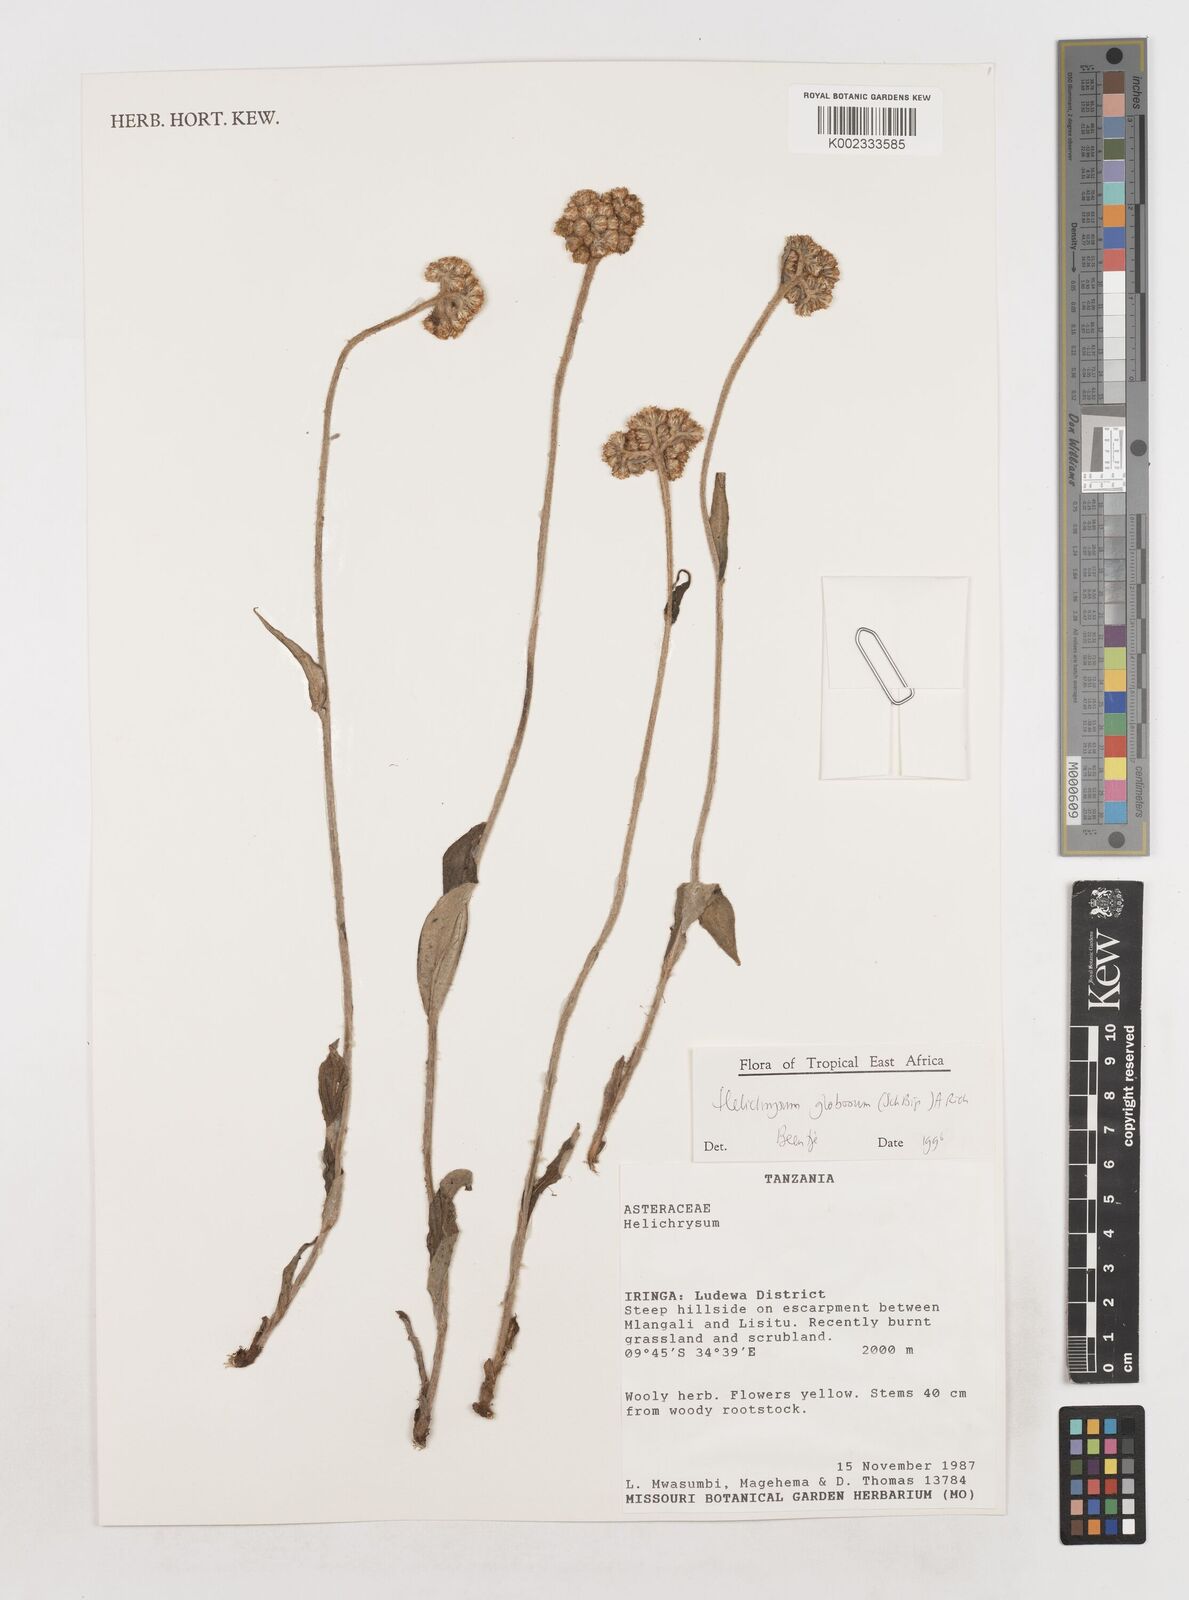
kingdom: Plantae
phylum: Tracheophyta
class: Magnoliopsida
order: Asterales
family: Asteraceae
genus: Helichrysum
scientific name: Helichrysum globosum
